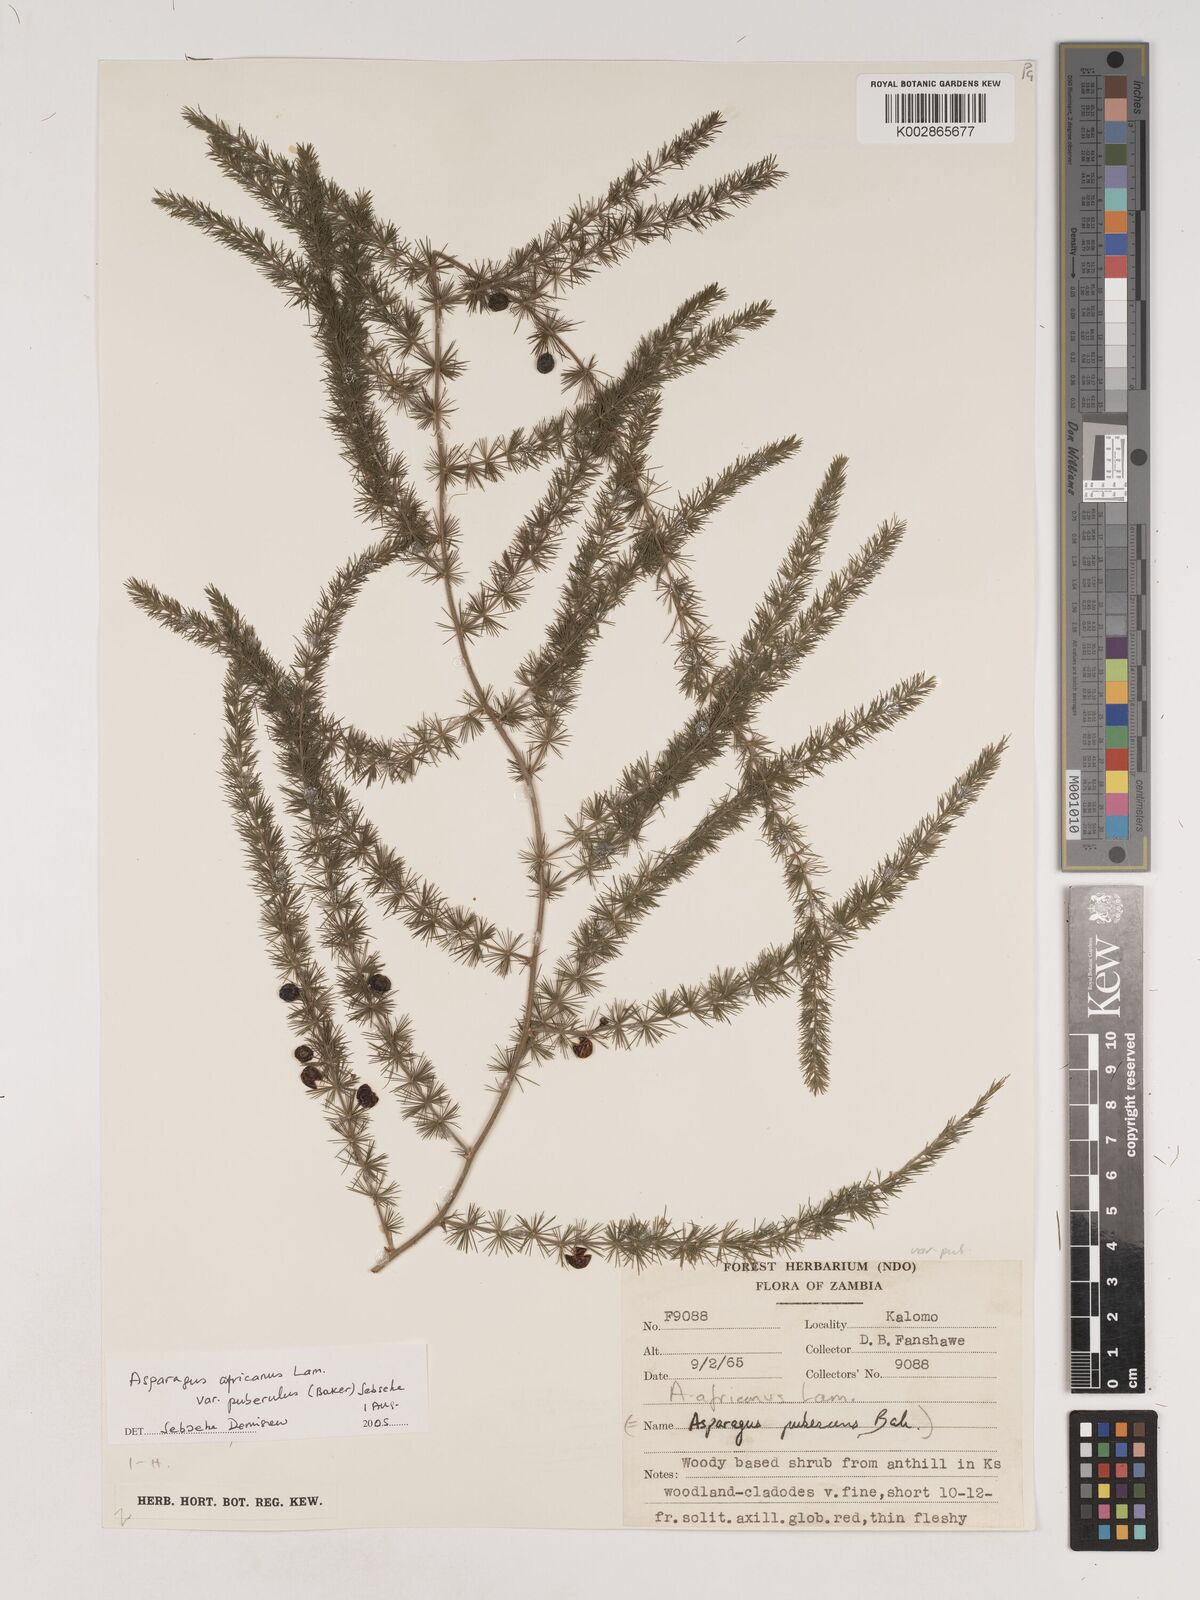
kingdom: Plantae
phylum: Tracheophyta
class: Liliopsida
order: Asparagales
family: Asparagaceae
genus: Asparagus
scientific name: Asparagus
